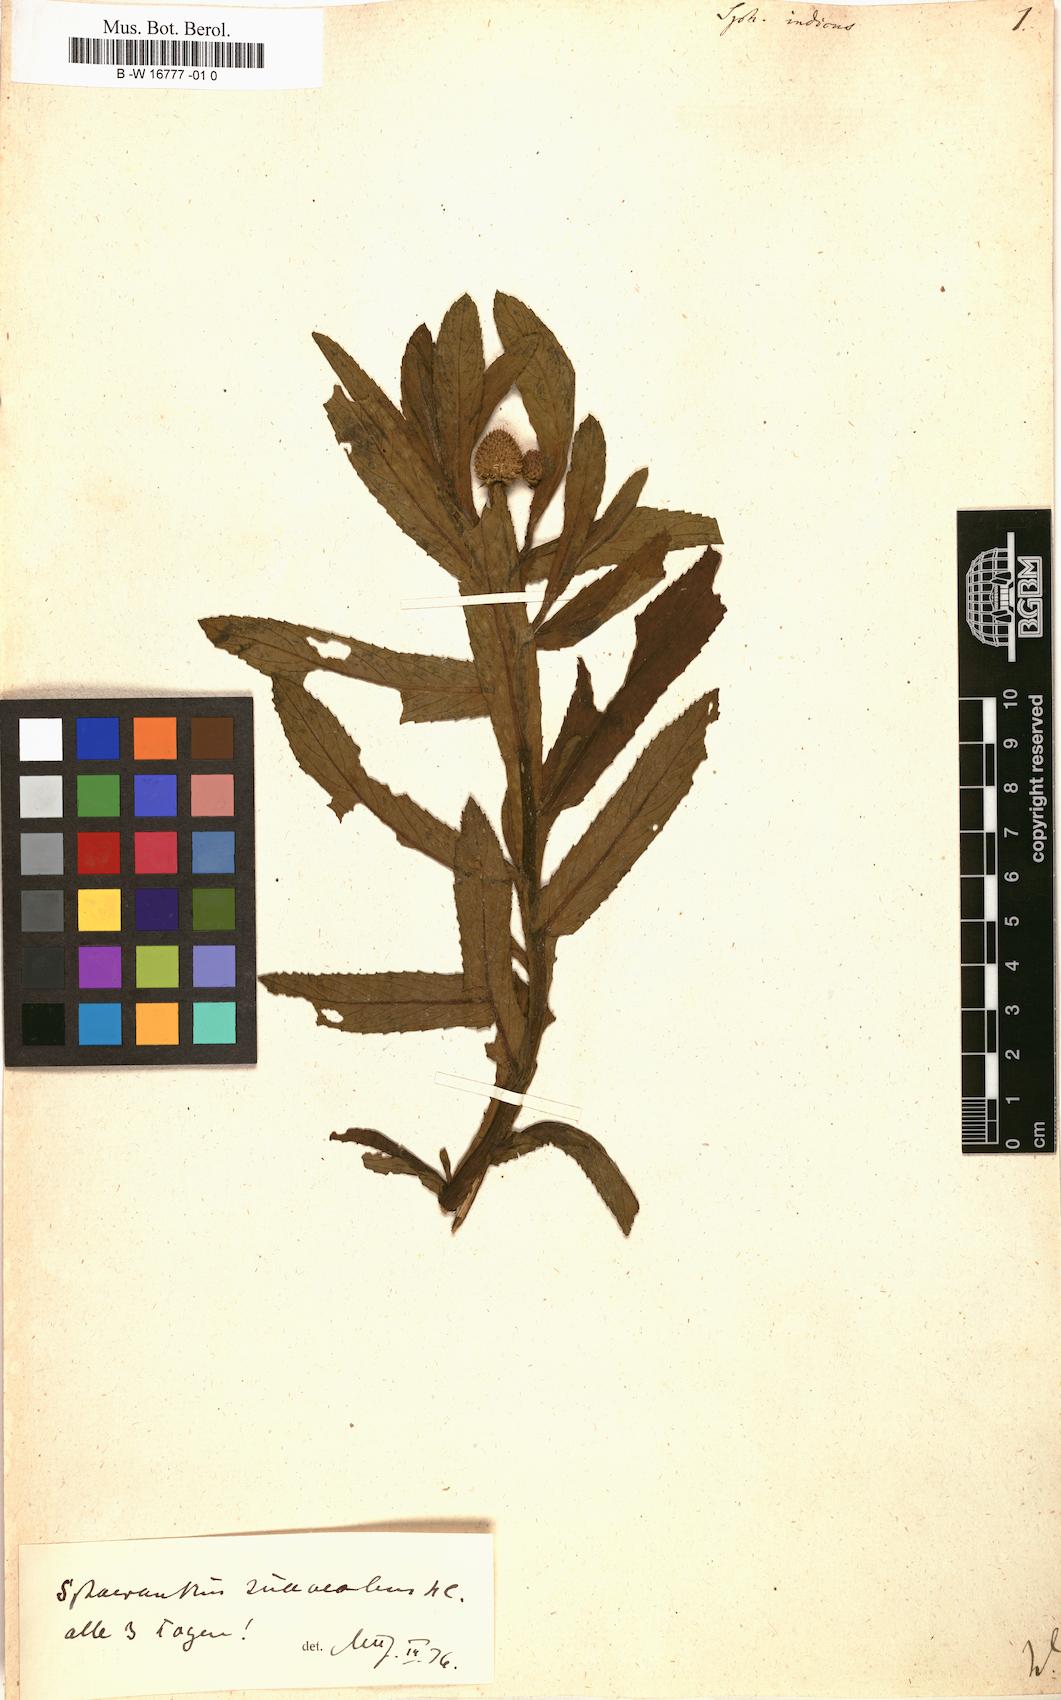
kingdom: Plantae
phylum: Tracheophyta
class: Magnoliopsida
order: Asterales
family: Asteraceae
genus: Sphaeranthus
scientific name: Sphaeranthus indicus
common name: East indian globe thistle
